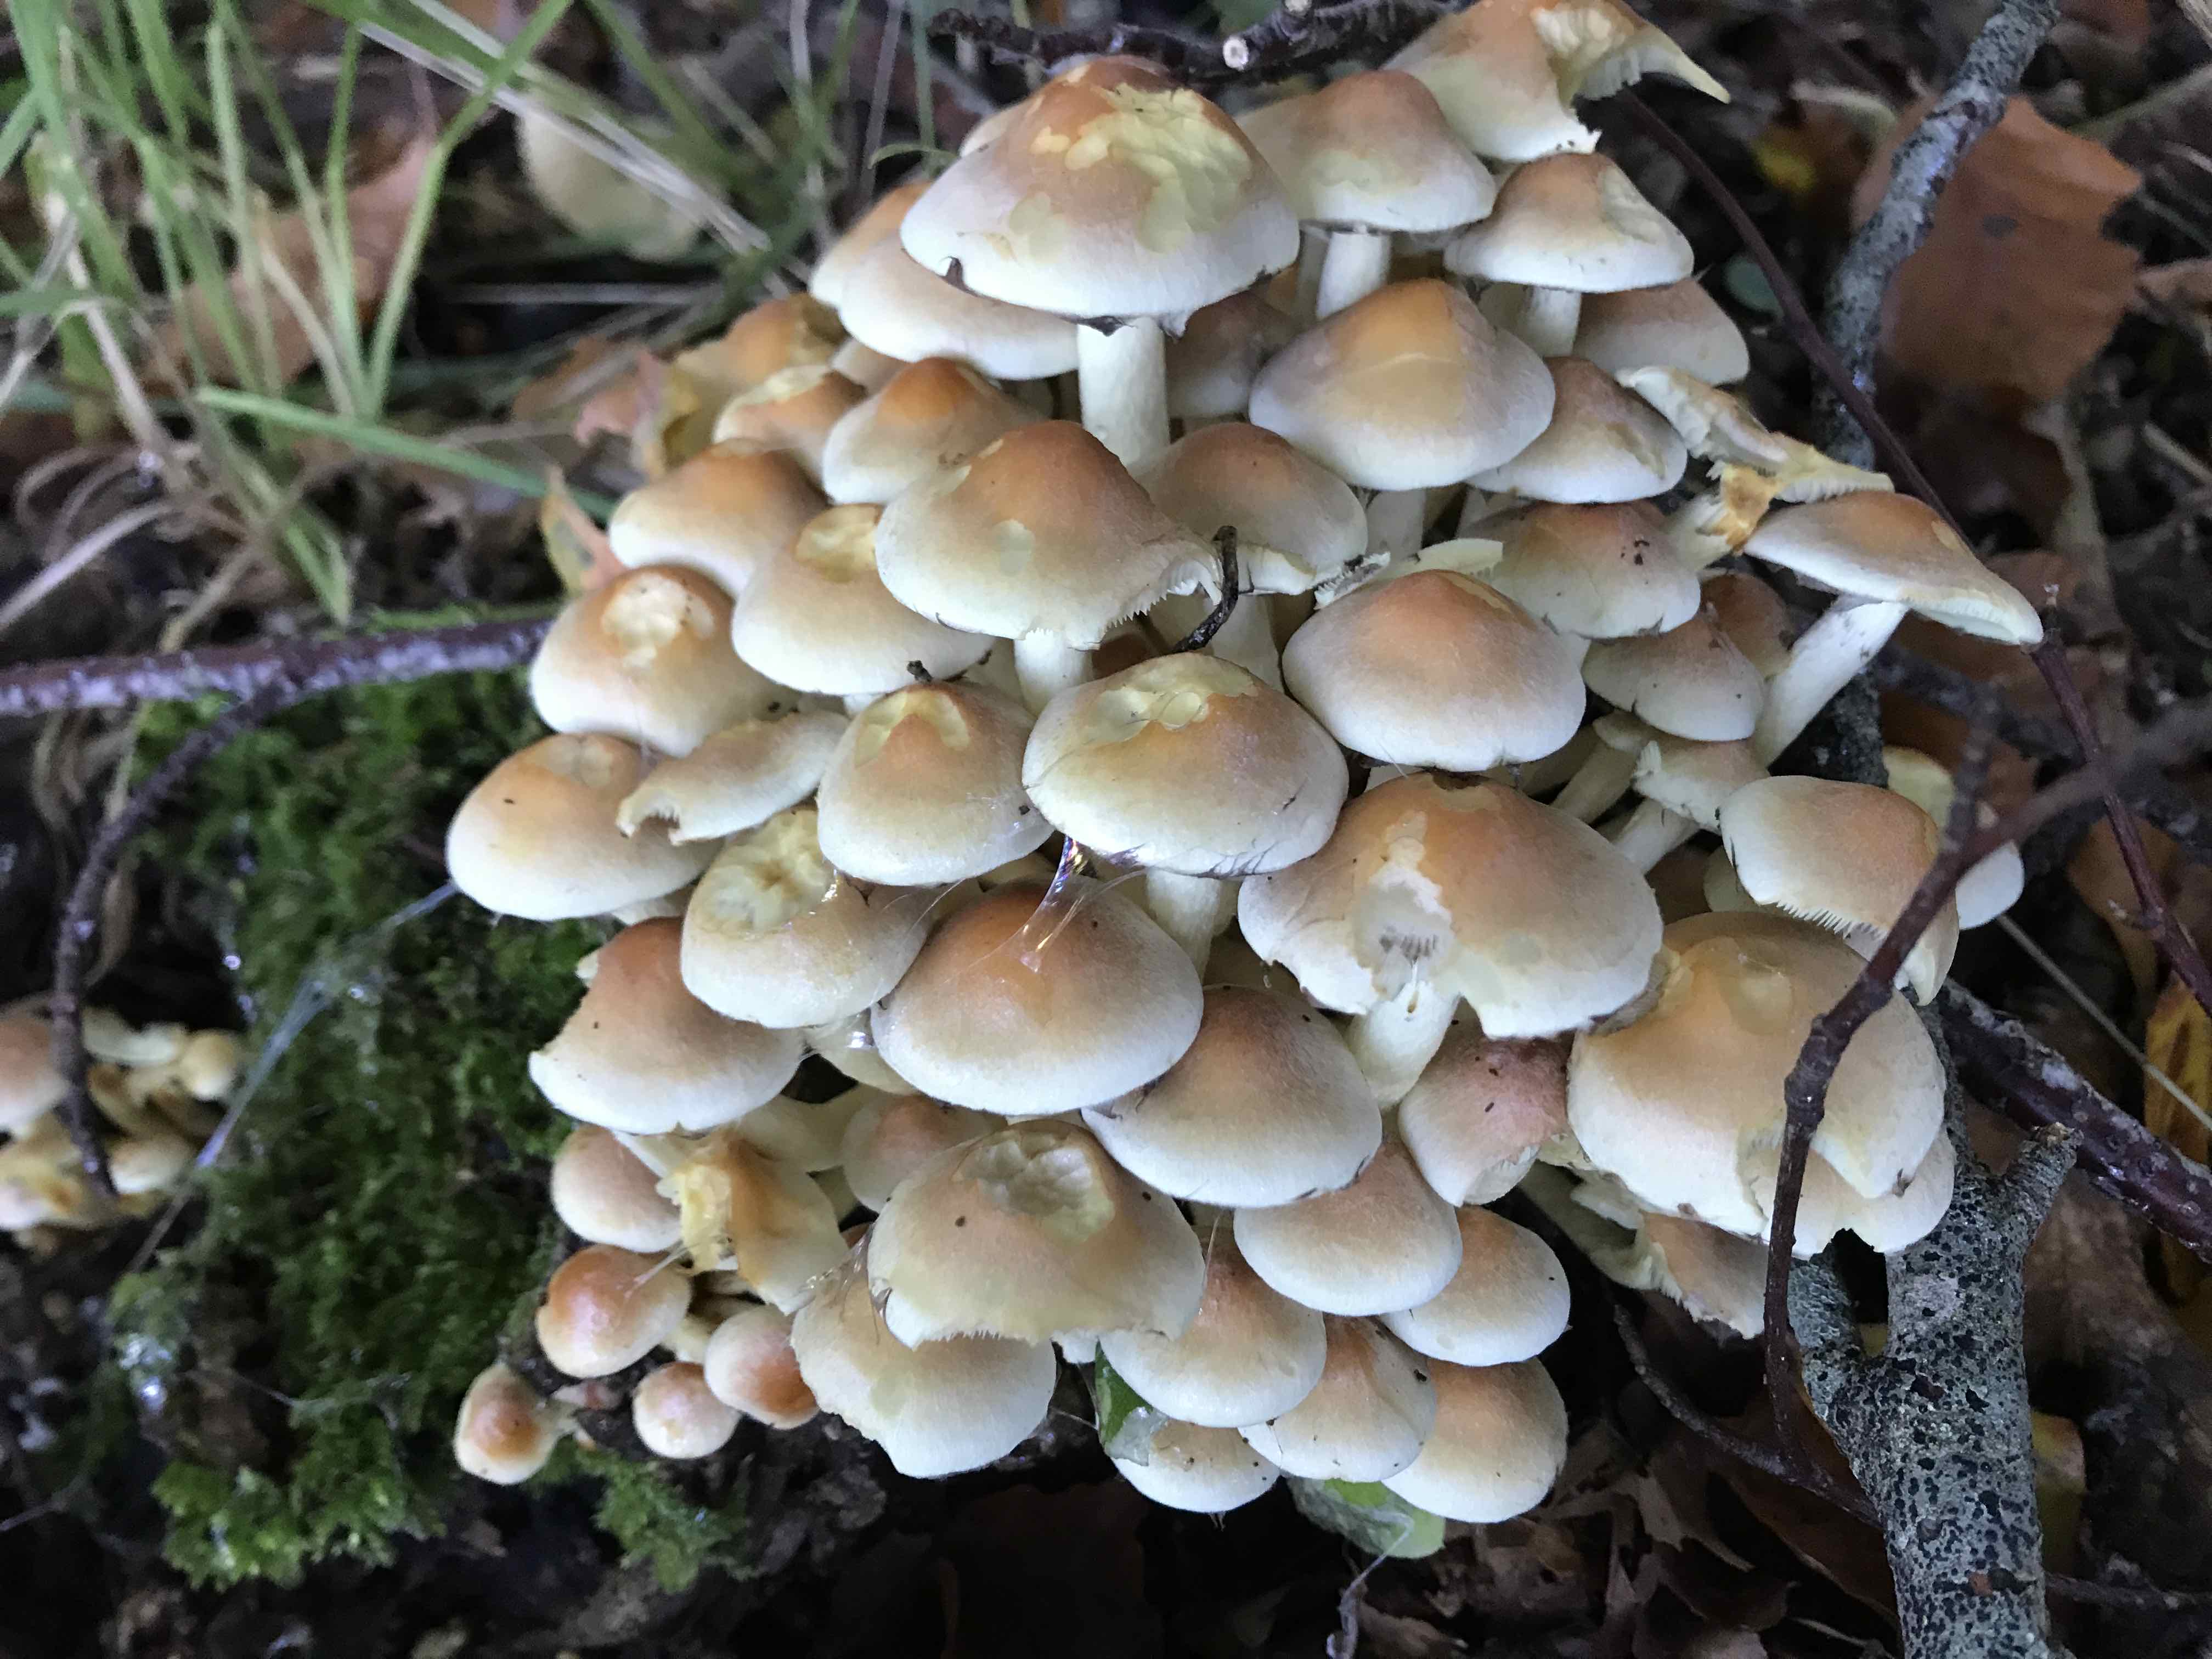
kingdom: Fungi
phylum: Basidiomycota
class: Agaricomycetes
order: Agaricales
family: Strophariaceae
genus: Hypholoma
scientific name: Hypholoma fasciculare
